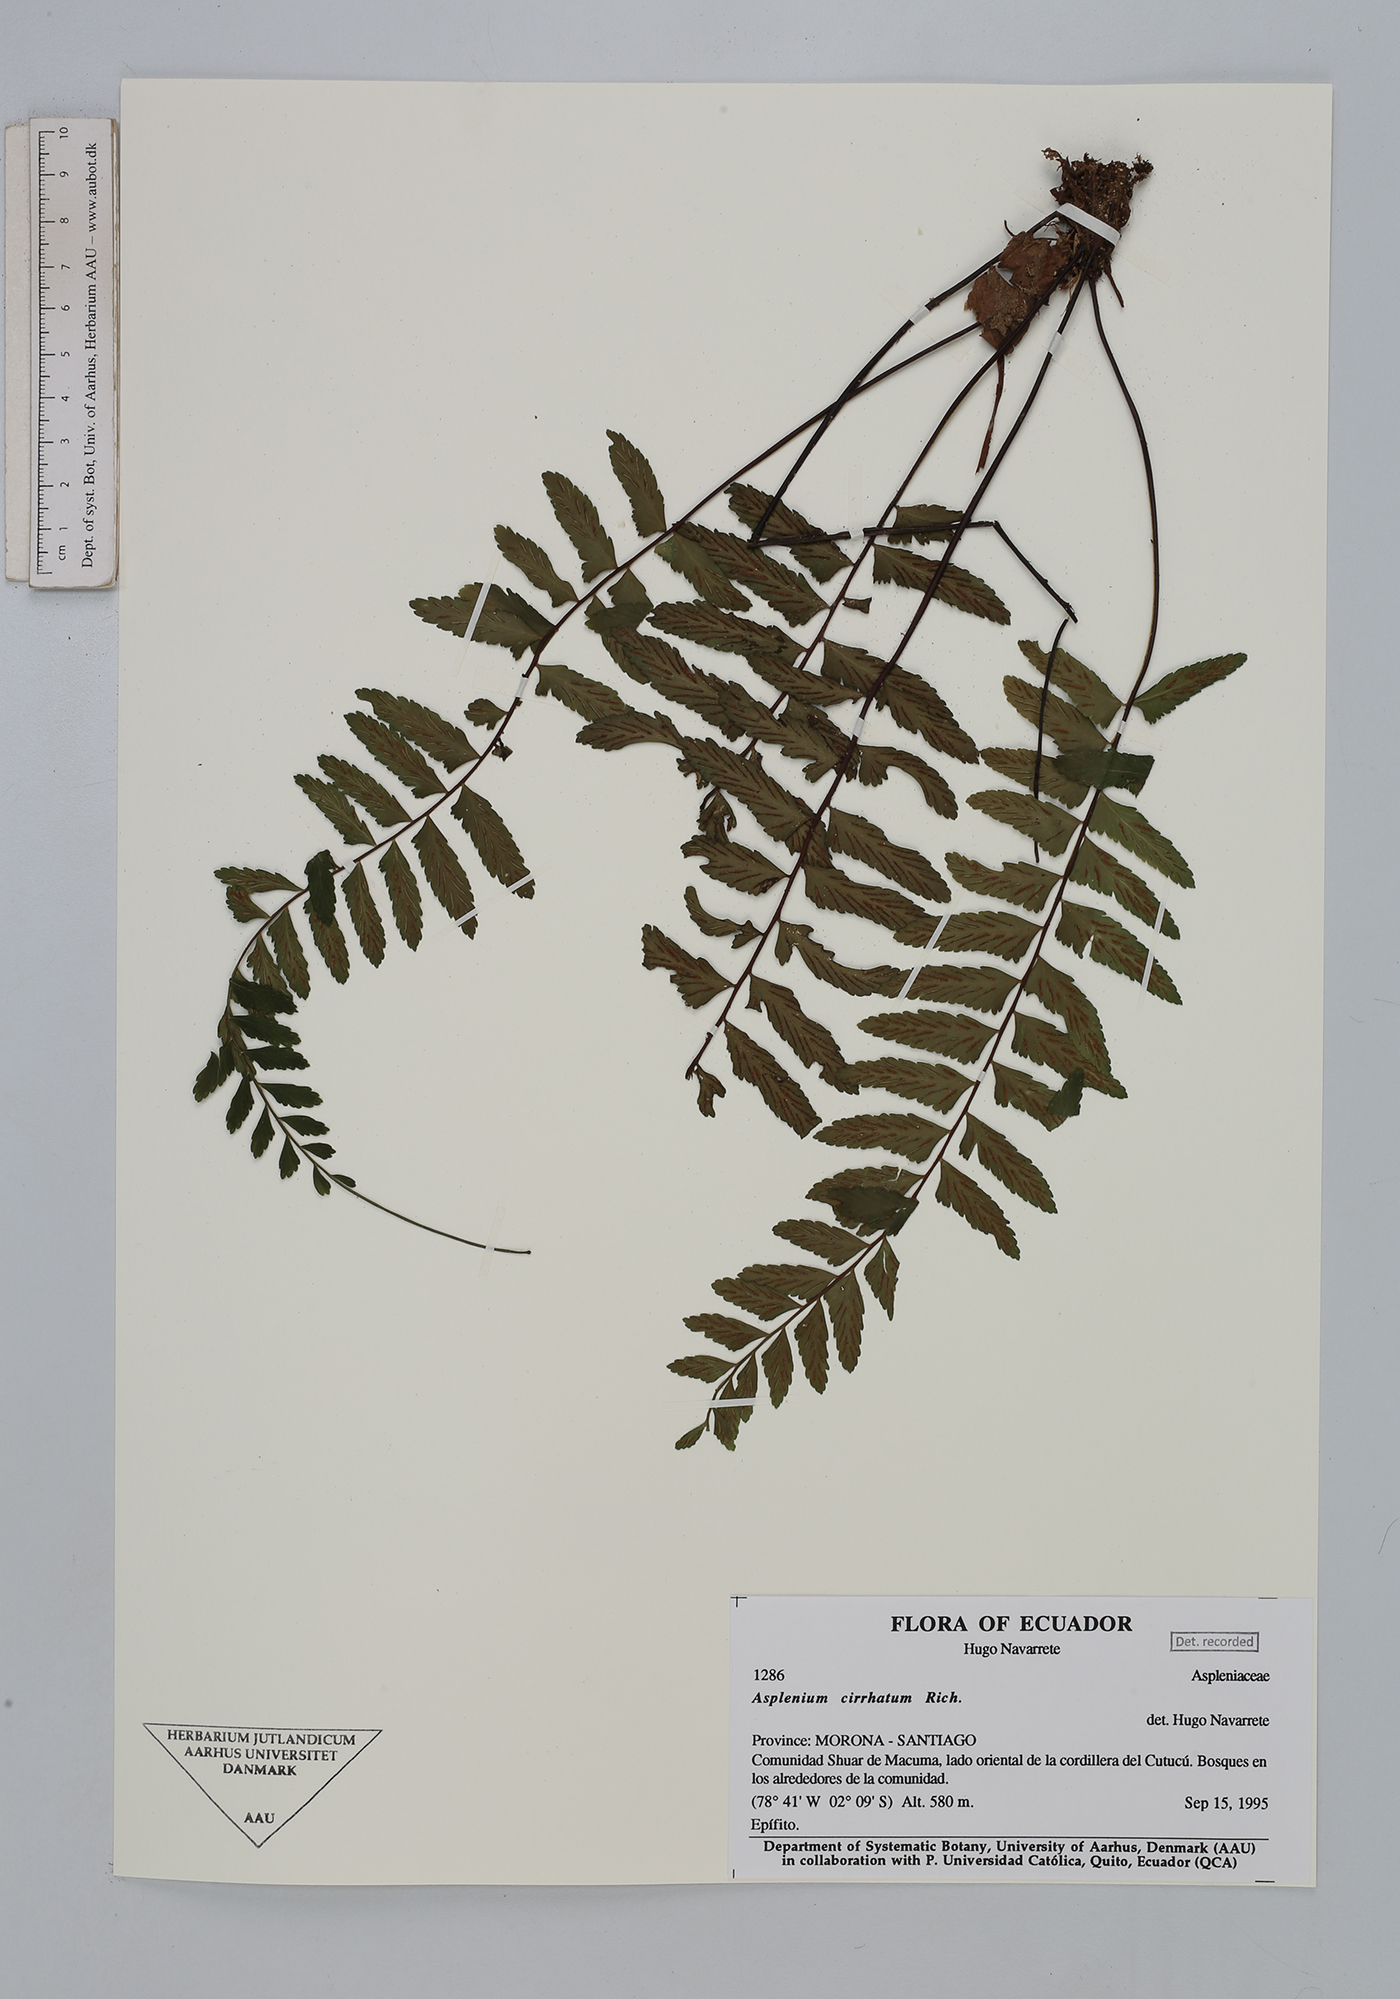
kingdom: Plantae
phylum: Tracheophyta
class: Polypodiopsida
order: Polypodiales
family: Aspleniaceae
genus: Asplenium
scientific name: Asplenium cirrhatum
